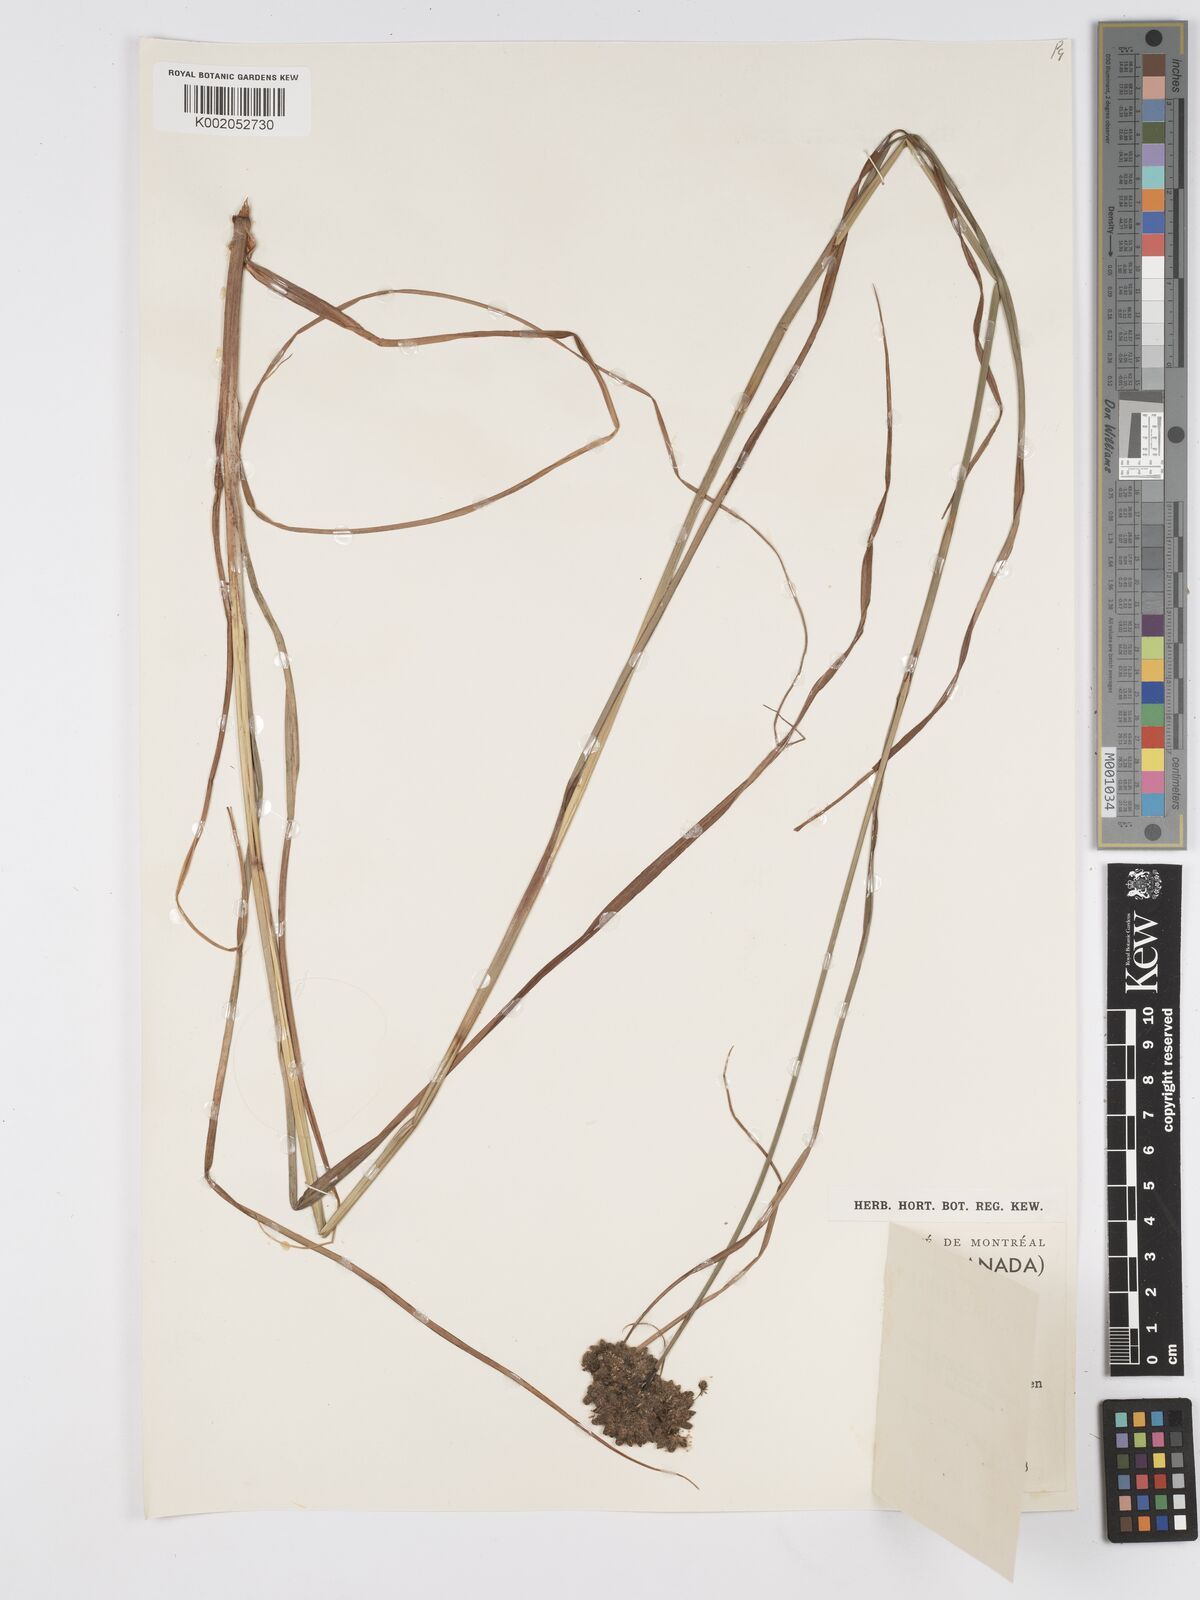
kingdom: Plantae
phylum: Tracheophyta
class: Liliopsida
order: Poales
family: Cyperaceae
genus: Scirpus
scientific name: Scirpus cyperinus
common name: Black-sheathed bulrush
